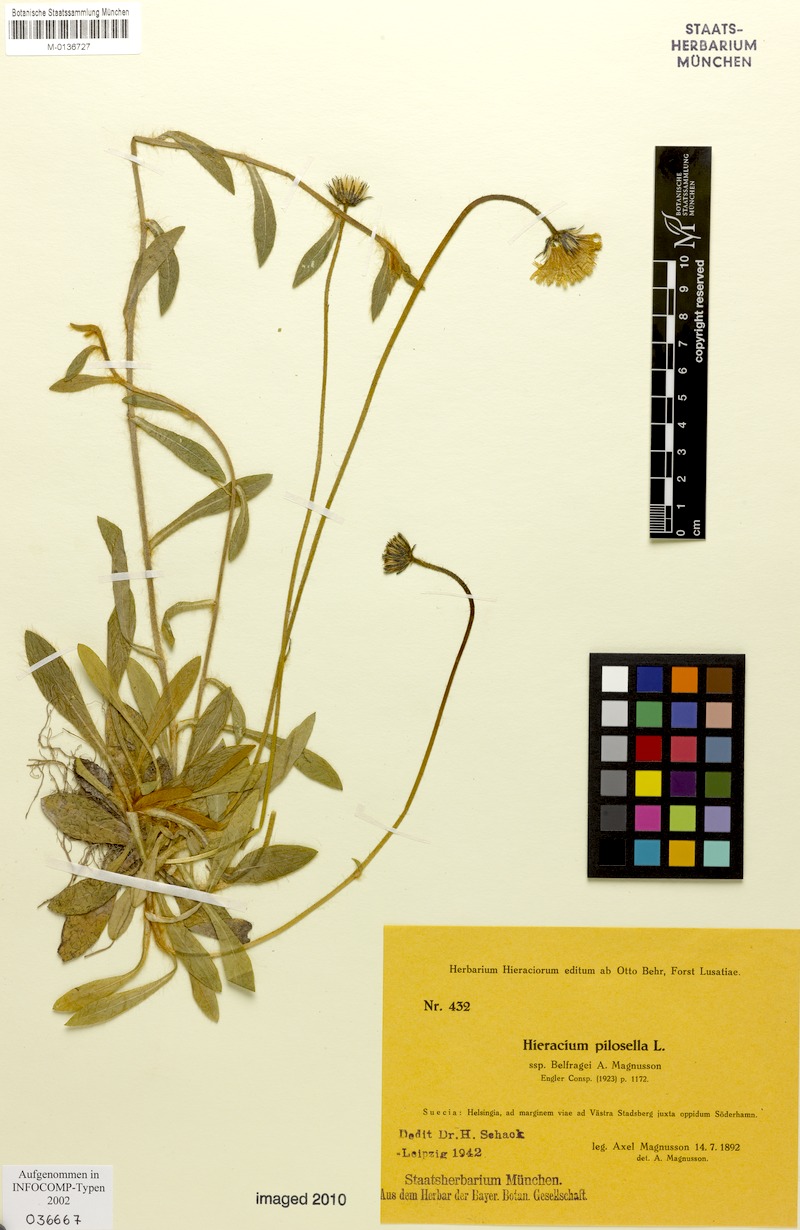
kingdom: Plantae
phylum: Tracheophyta
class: Magnoliopsida
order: Asterales
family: Asteraceae
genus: Pilosella
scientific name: Pilosella officinarum
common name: Mouse-ear hawkweed
